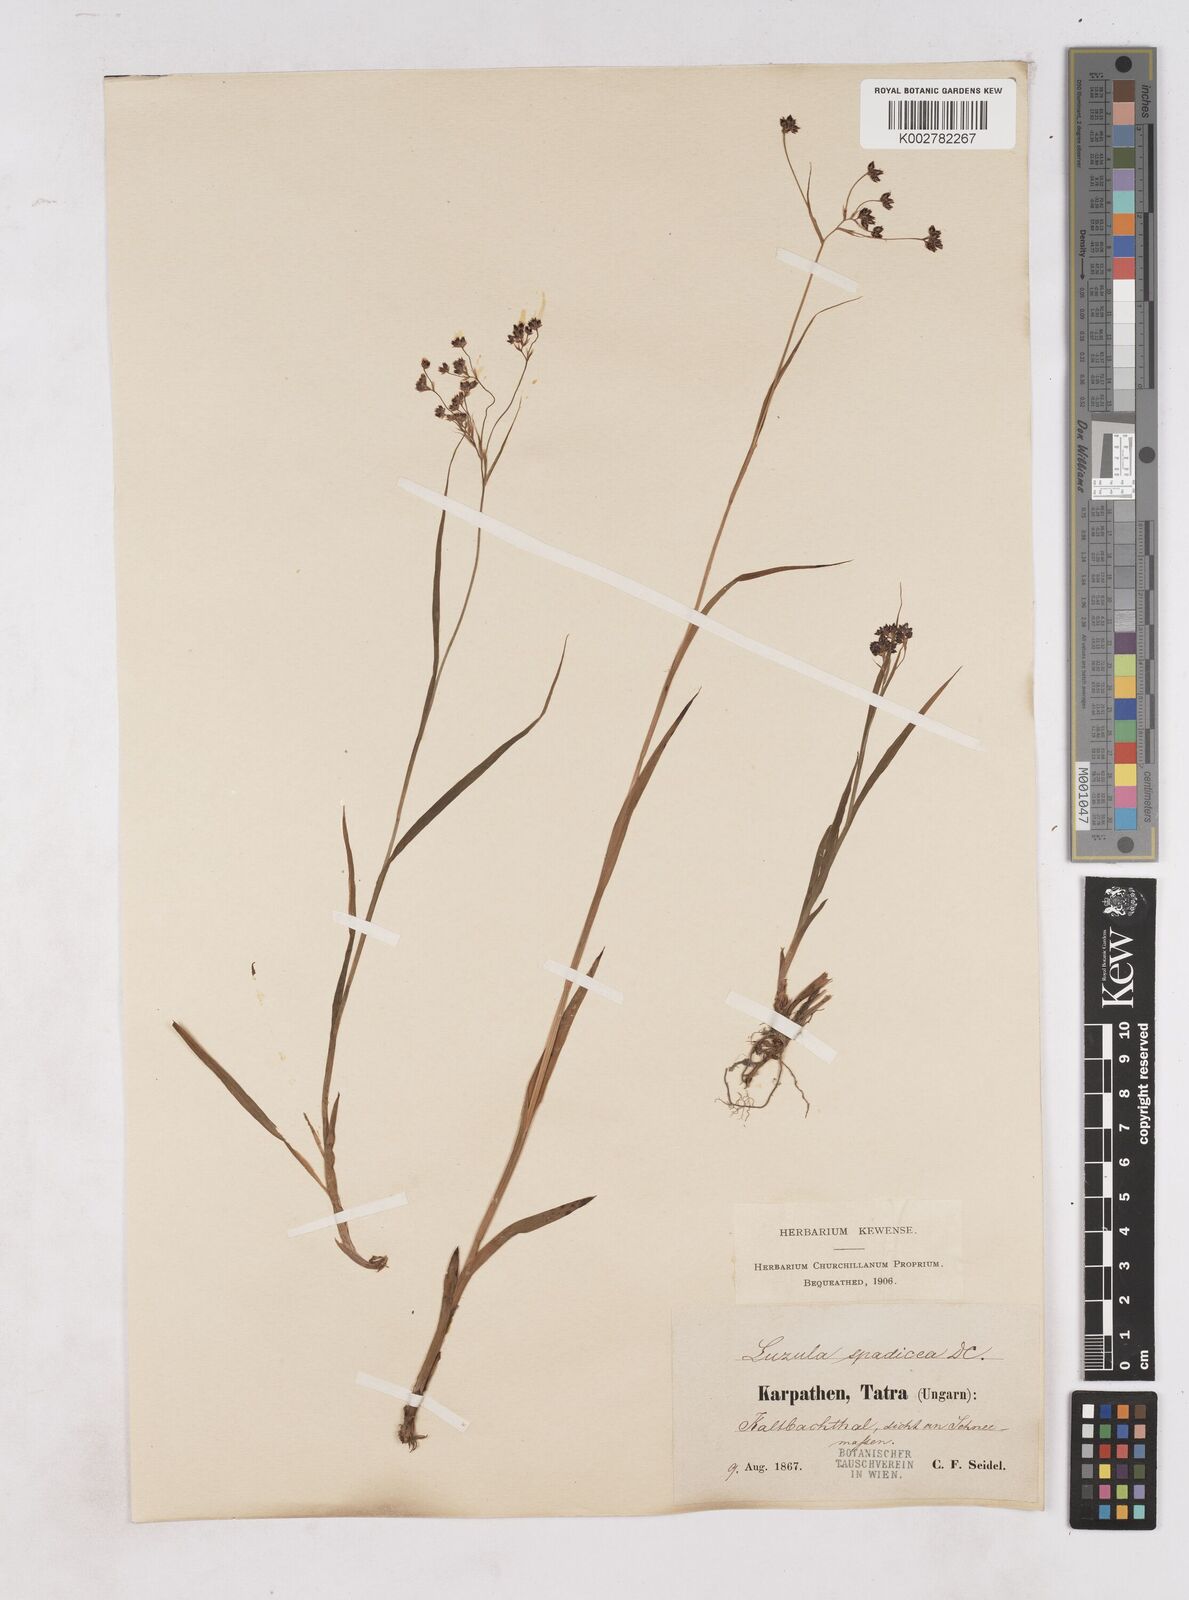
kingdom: Plantae
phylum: Tracheophyta
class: Liliopsida
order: Poales
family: Juncaceae
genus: Luzula
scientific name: Luzula alpinopilosa
